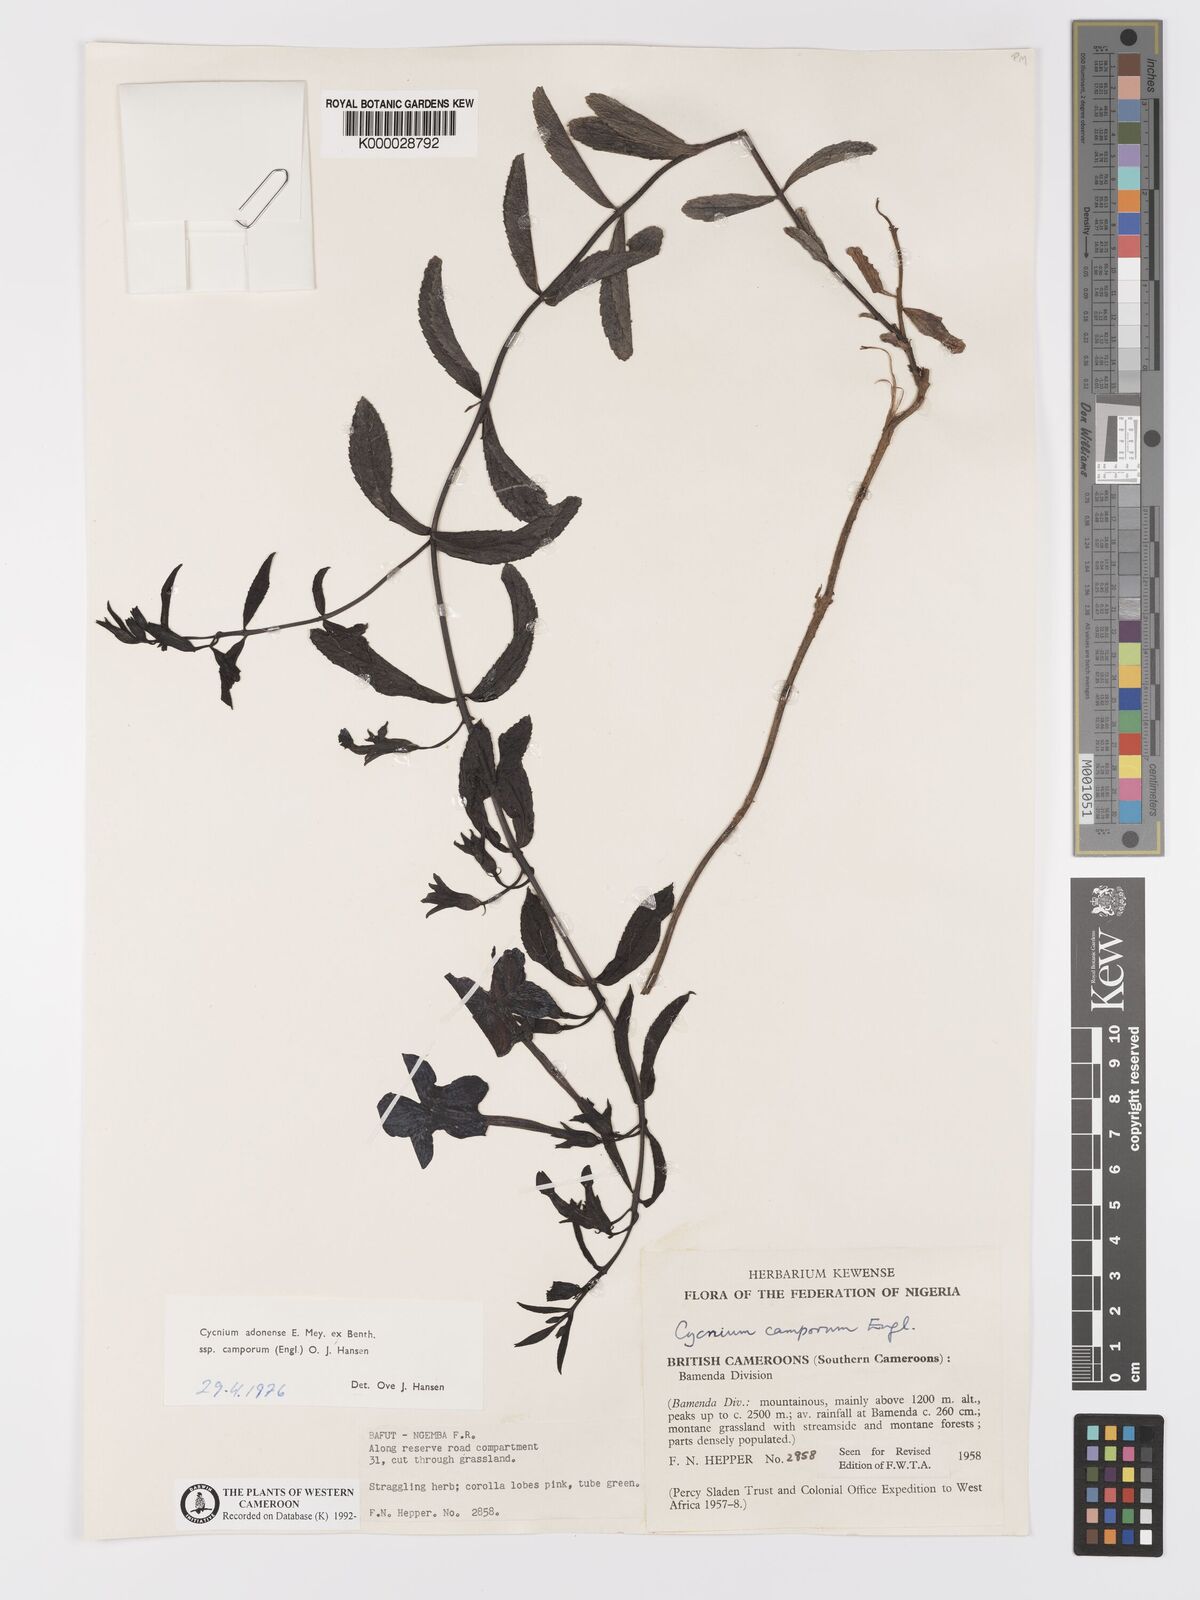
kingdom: Plantae
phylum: Tracheophyta
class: Magnoliopsida
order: Lamiales
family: Orobanchaceae
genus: Cycnium
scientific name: Cycnium adoense
